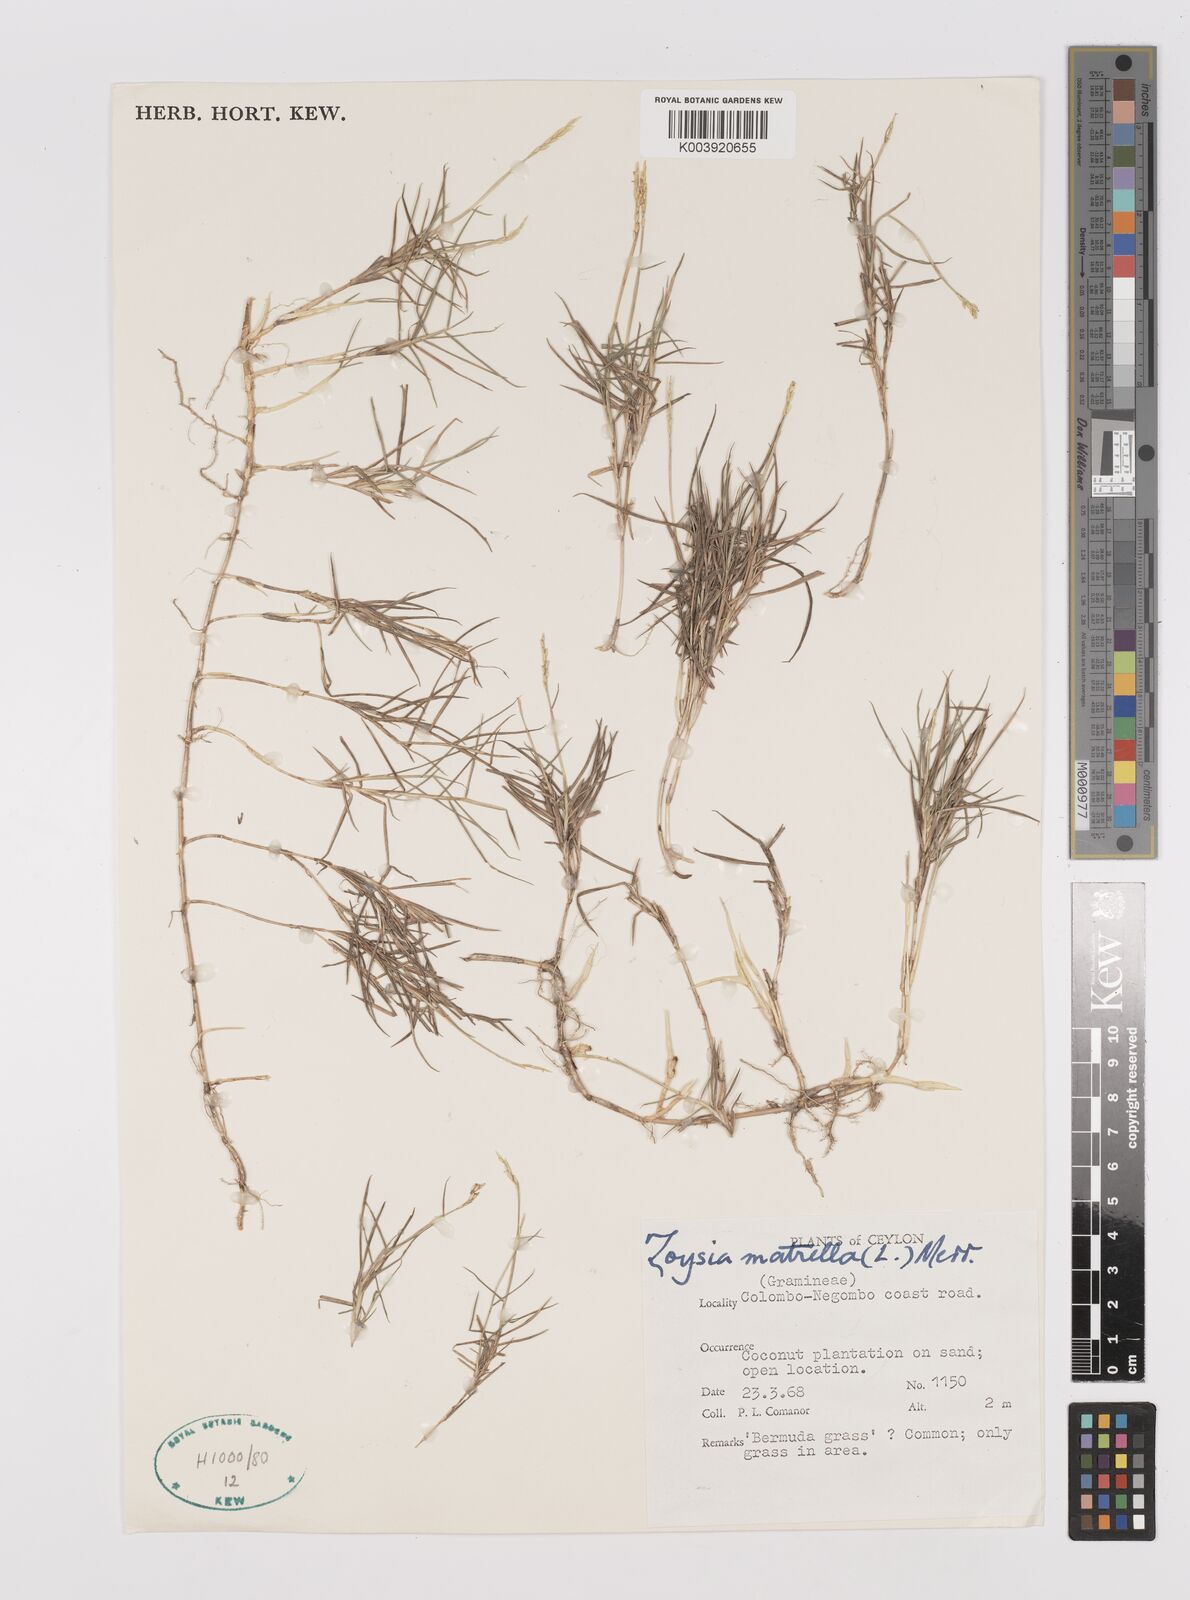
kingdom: Plantae
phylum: Tracheophyta
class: Liliopsida
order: Poales
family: Poaceae
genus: Zoysia
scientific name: Zoysia matrella
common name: Manila grass
